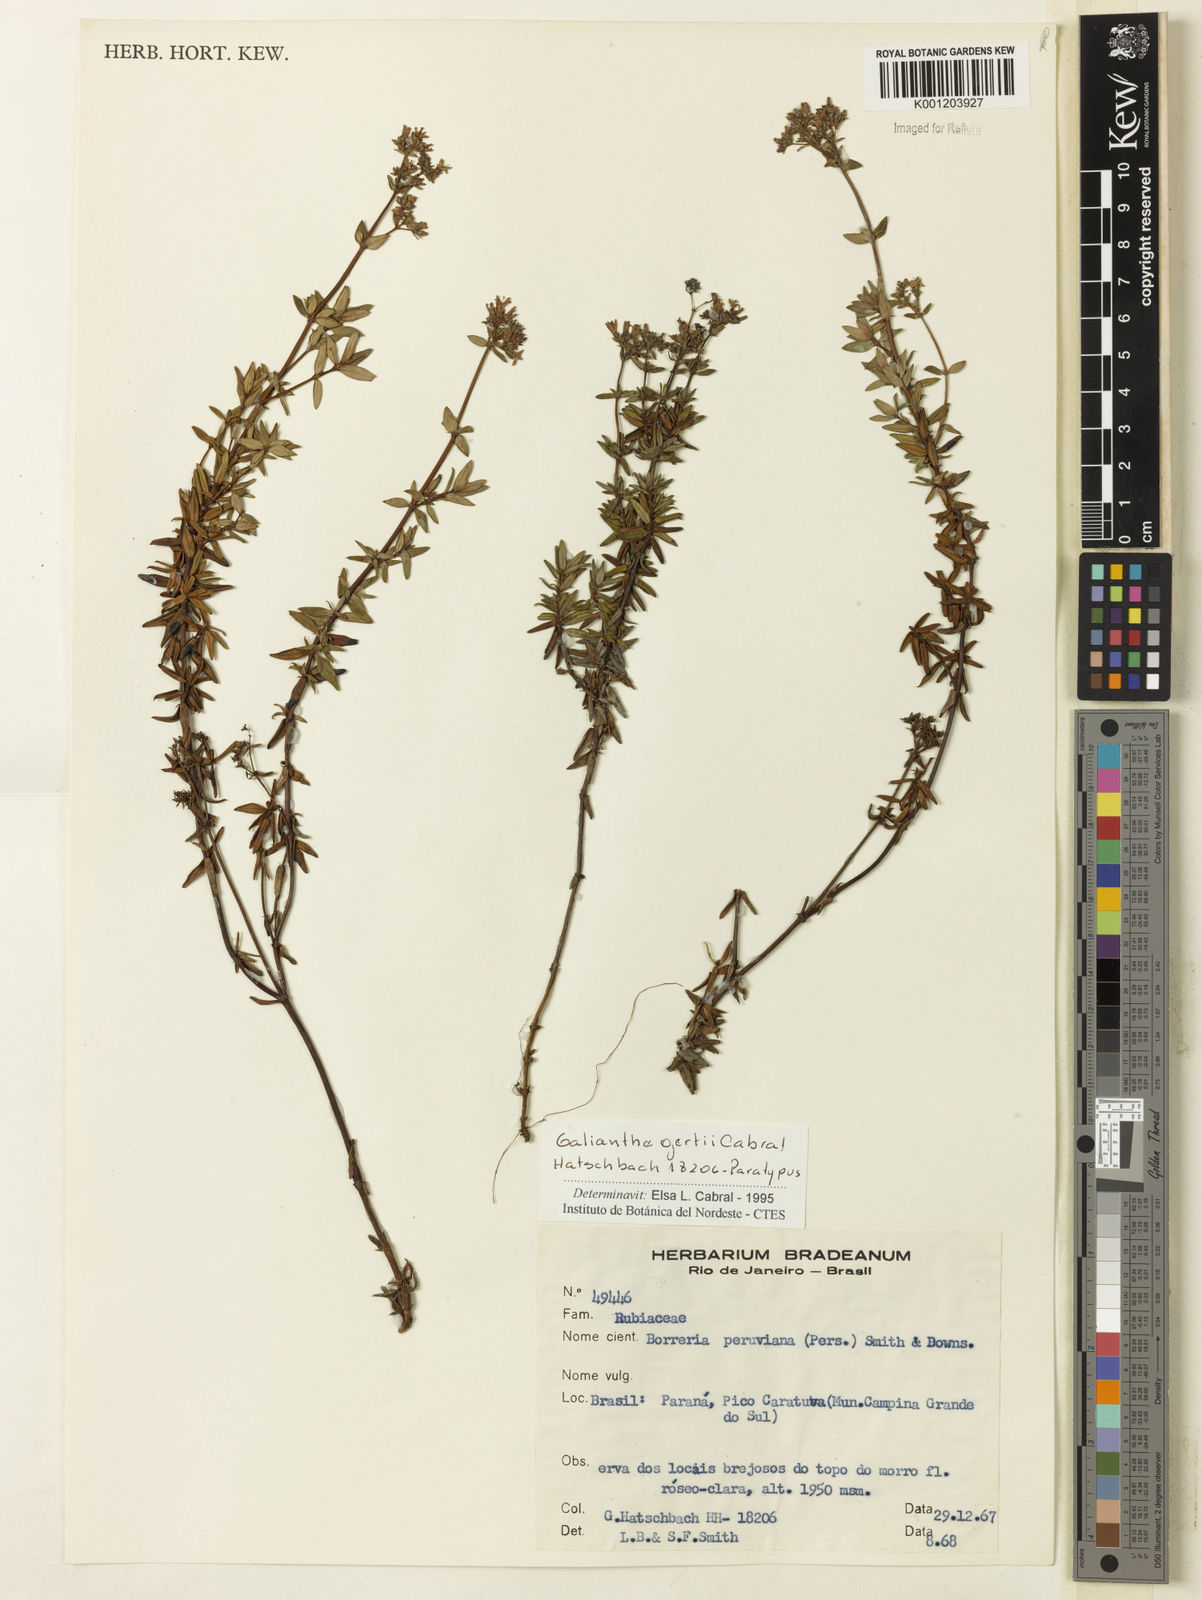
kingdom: Plantae
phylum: Tracheophyta
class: Magnoliopsida
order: Gentianales
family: Rubiaceae
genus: Galianthe
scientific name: Galianthe gertii
